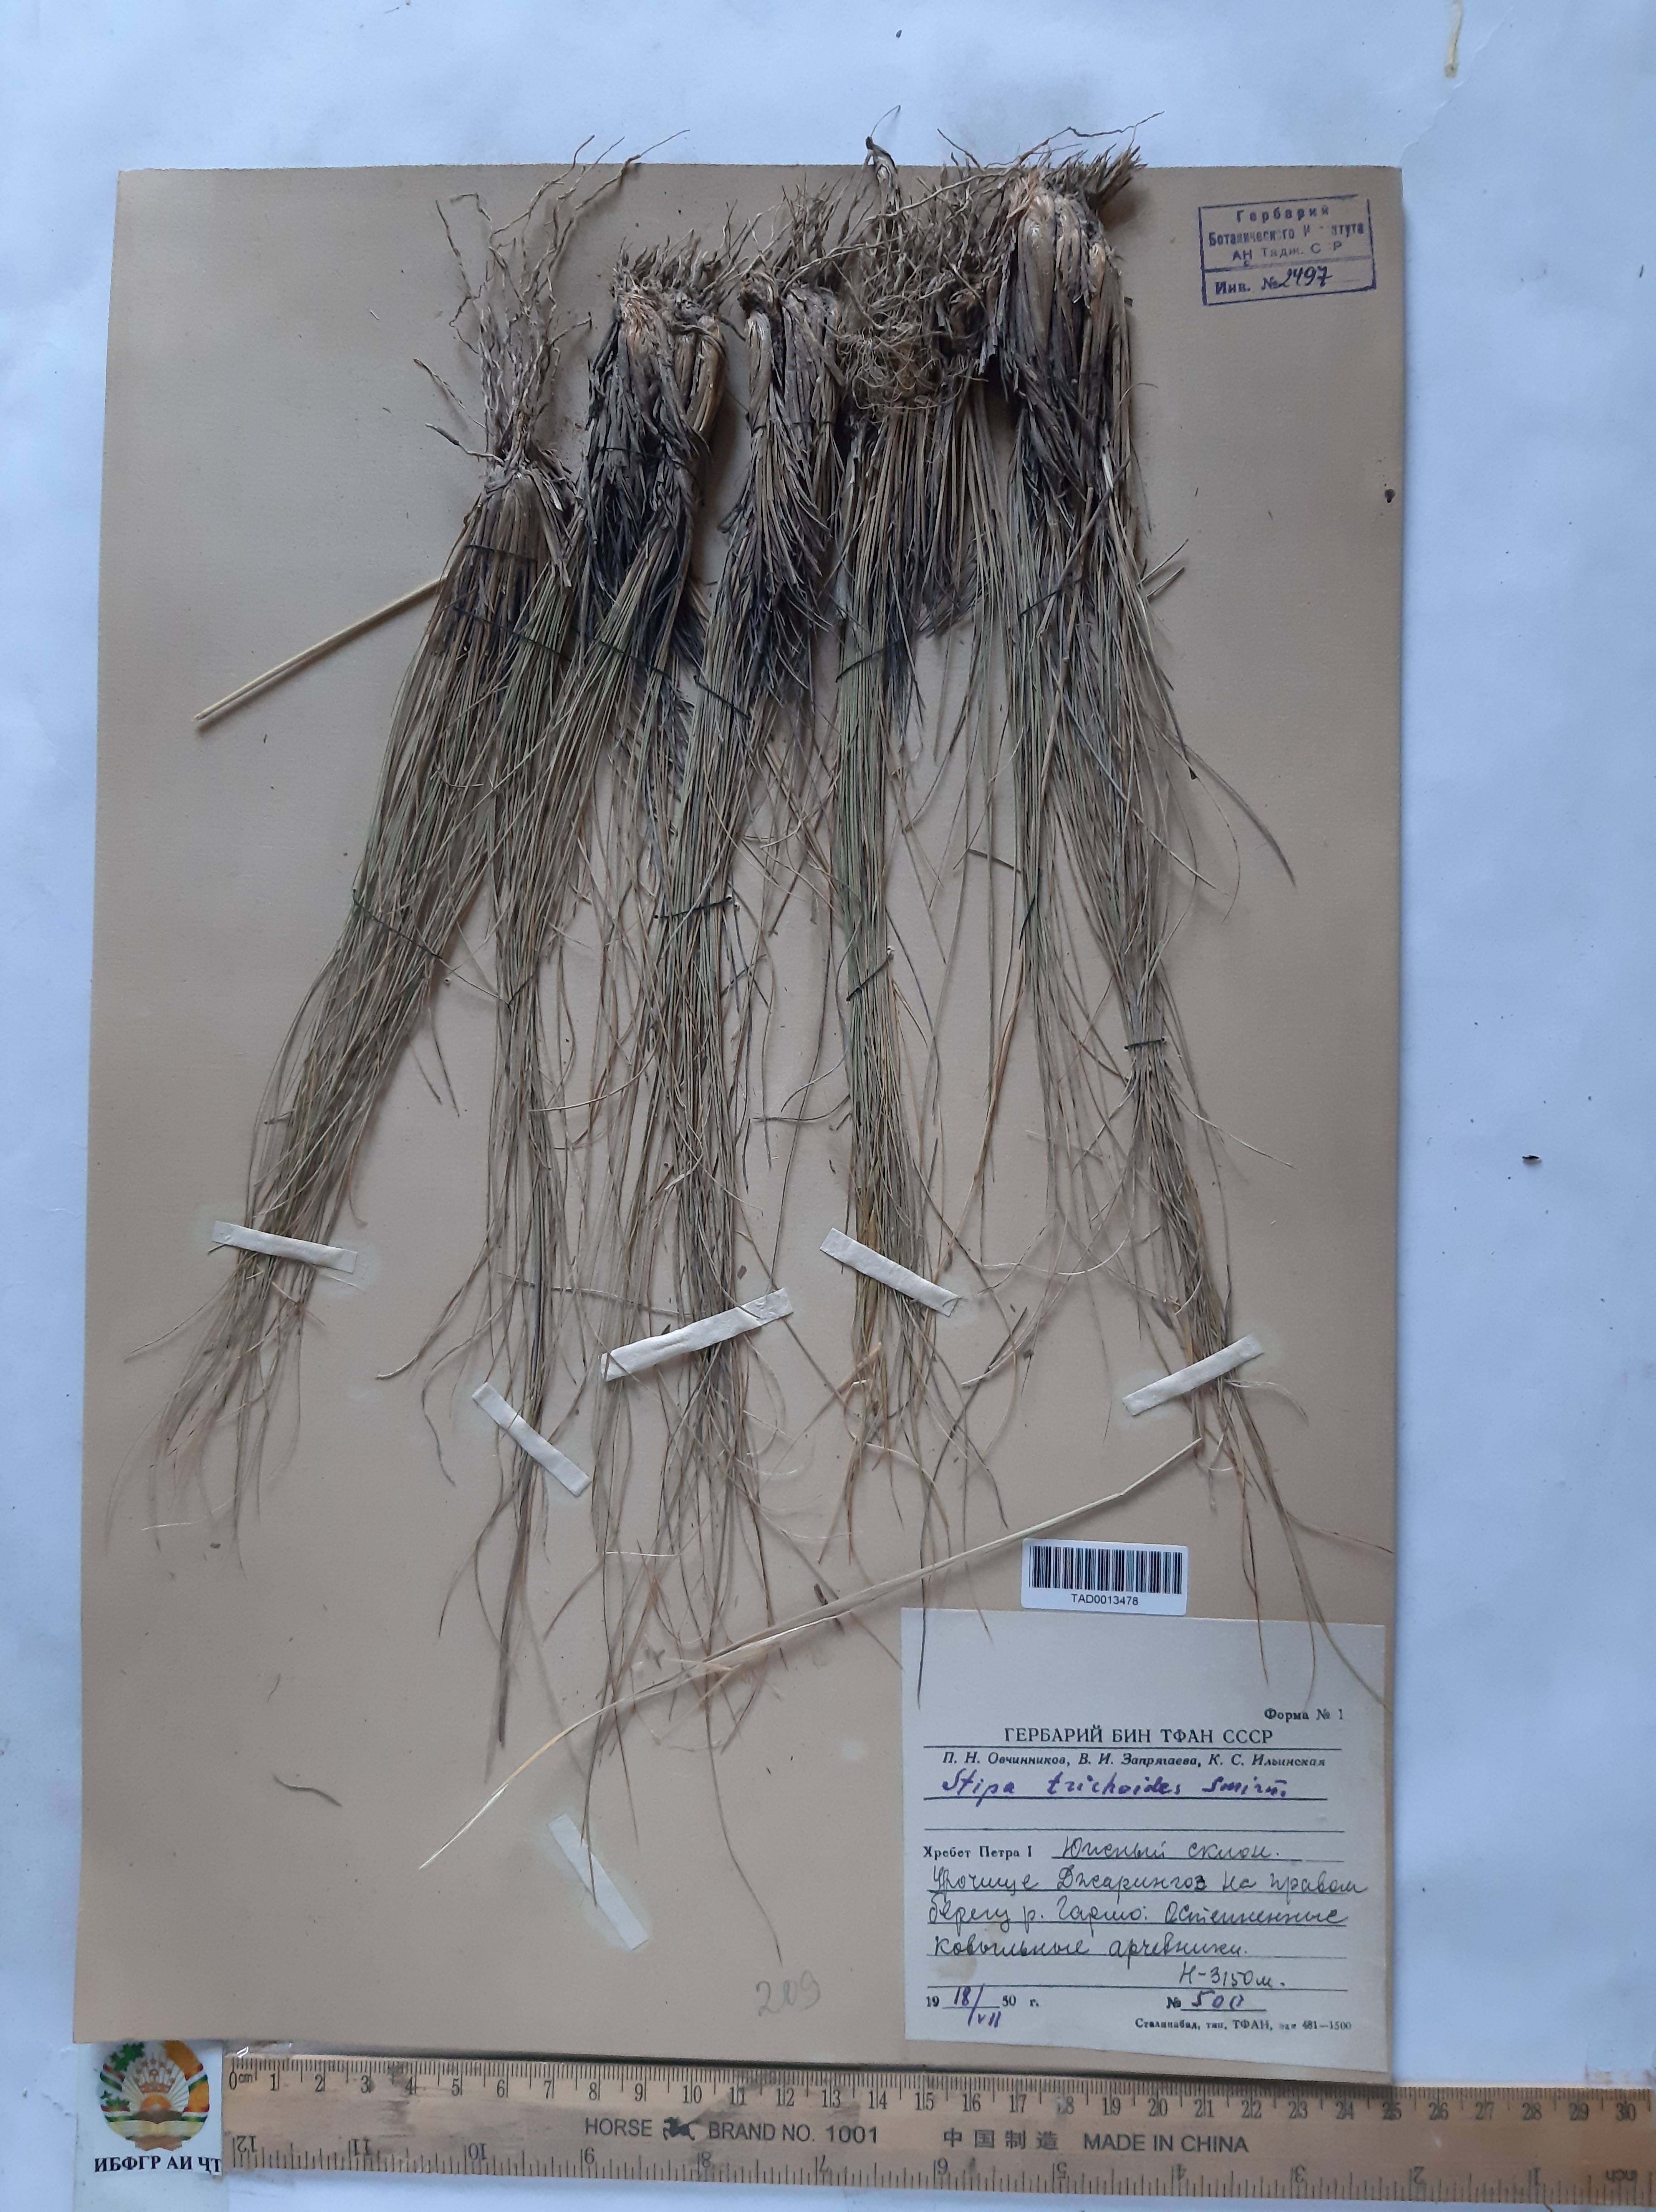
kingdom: Plantae
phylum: Tracheophyta
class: Liliopsida
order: Poales
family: Poaceae
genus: Stipa
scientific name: Stipa trichoides
